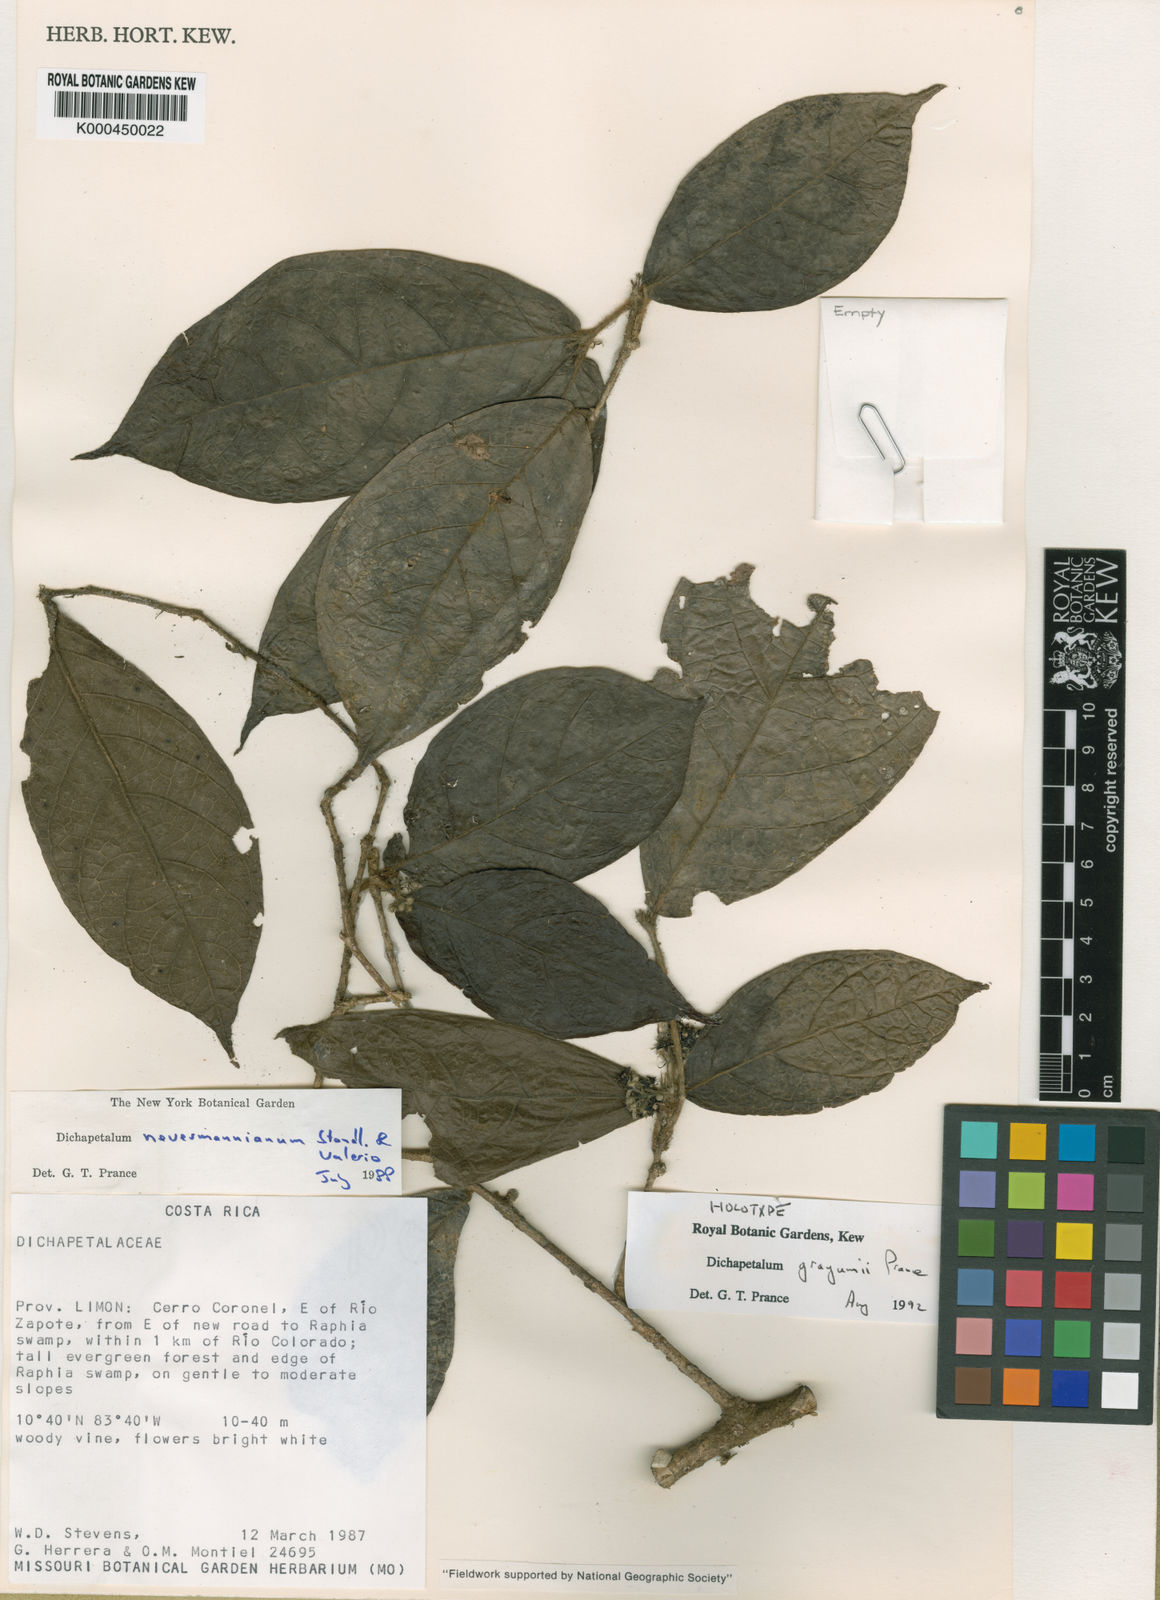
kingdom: Plantae
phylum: Tracheophyta
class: Magnoliopsida
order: Malpighiales
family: Dichapetalaceae
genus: Dichapetalum
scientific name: Dichapetalum grayumii
